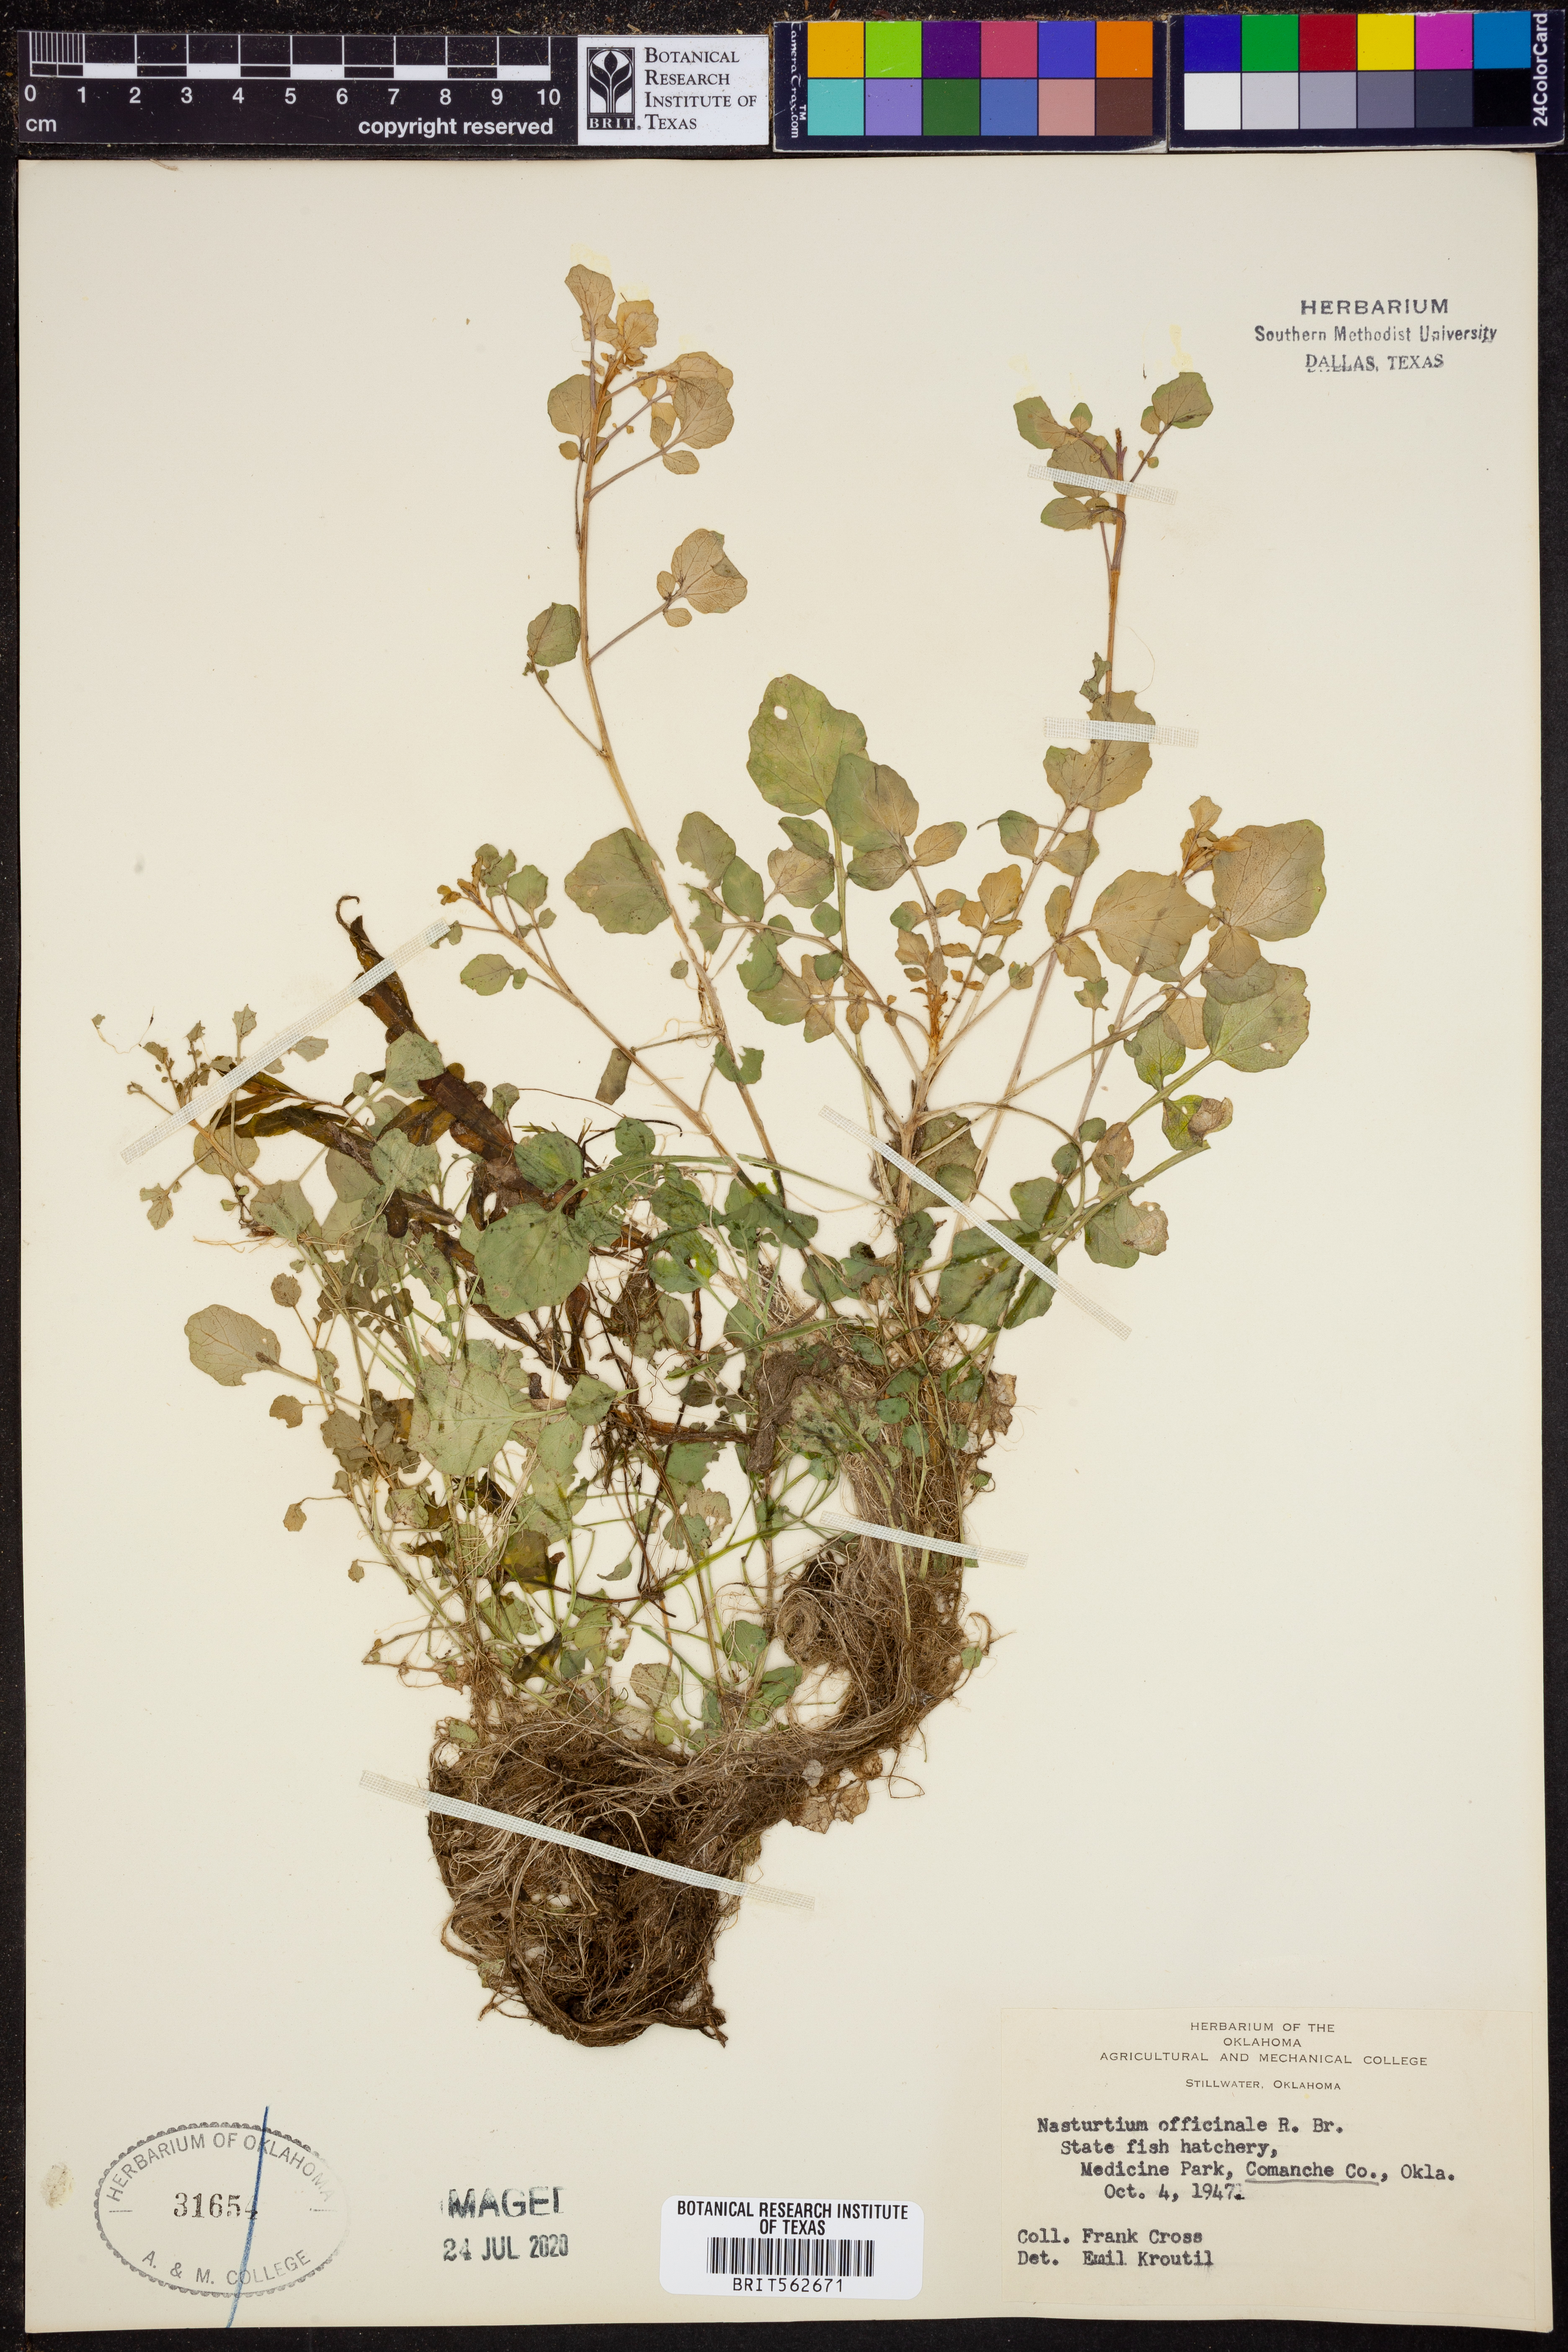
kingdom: Plantae
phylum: Tracheophyta
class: Magnoliopsida
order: Brassicales
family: Brassicaceae
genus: Nasturtium
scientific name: Nasturtium officinale
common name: Watercress
